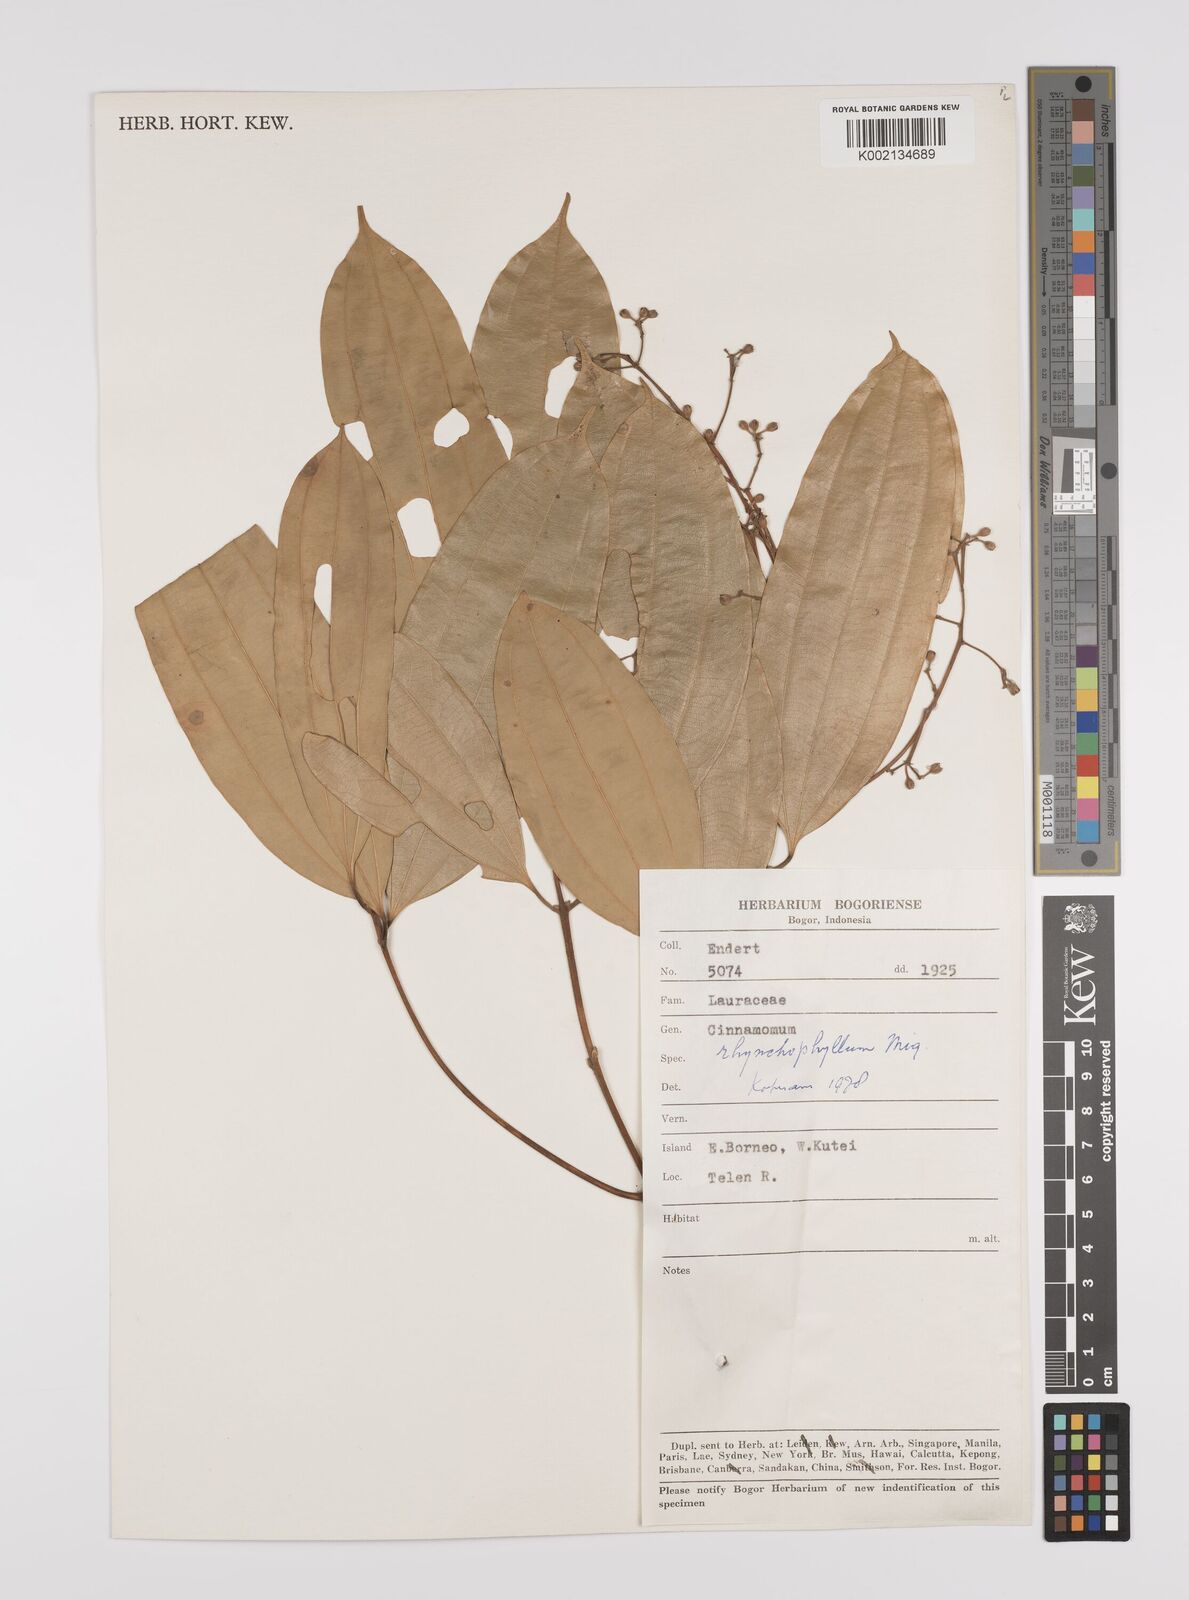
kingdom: Plantae
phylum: Tracheophyta
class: Magnoliopsida
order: Laurales
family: Lauraceae
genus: Cinnamomum
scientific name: Cinnamomum rhynchophyllum
